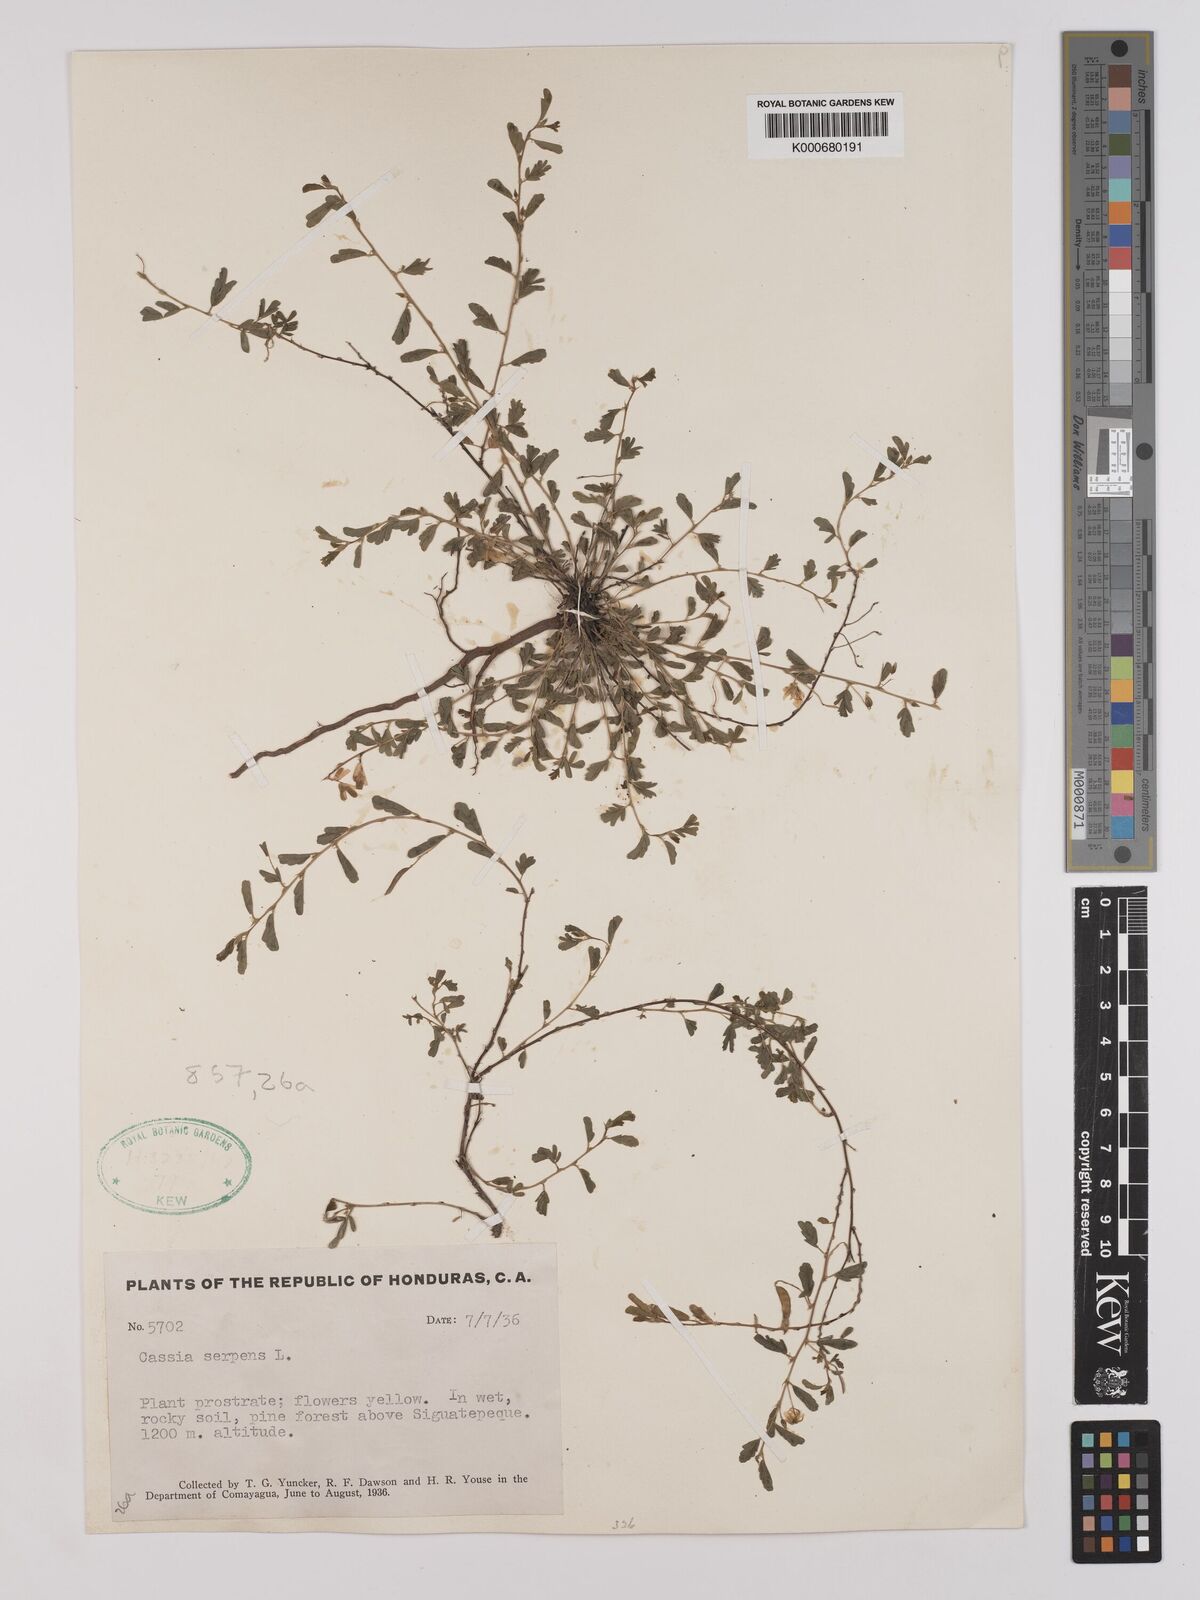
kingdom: Plantae
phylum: Tracheophyta
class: Magnoliopsida
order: Fabales
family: Fabaceae
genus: Chamaecrista
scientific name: Chamaecrista serpens
